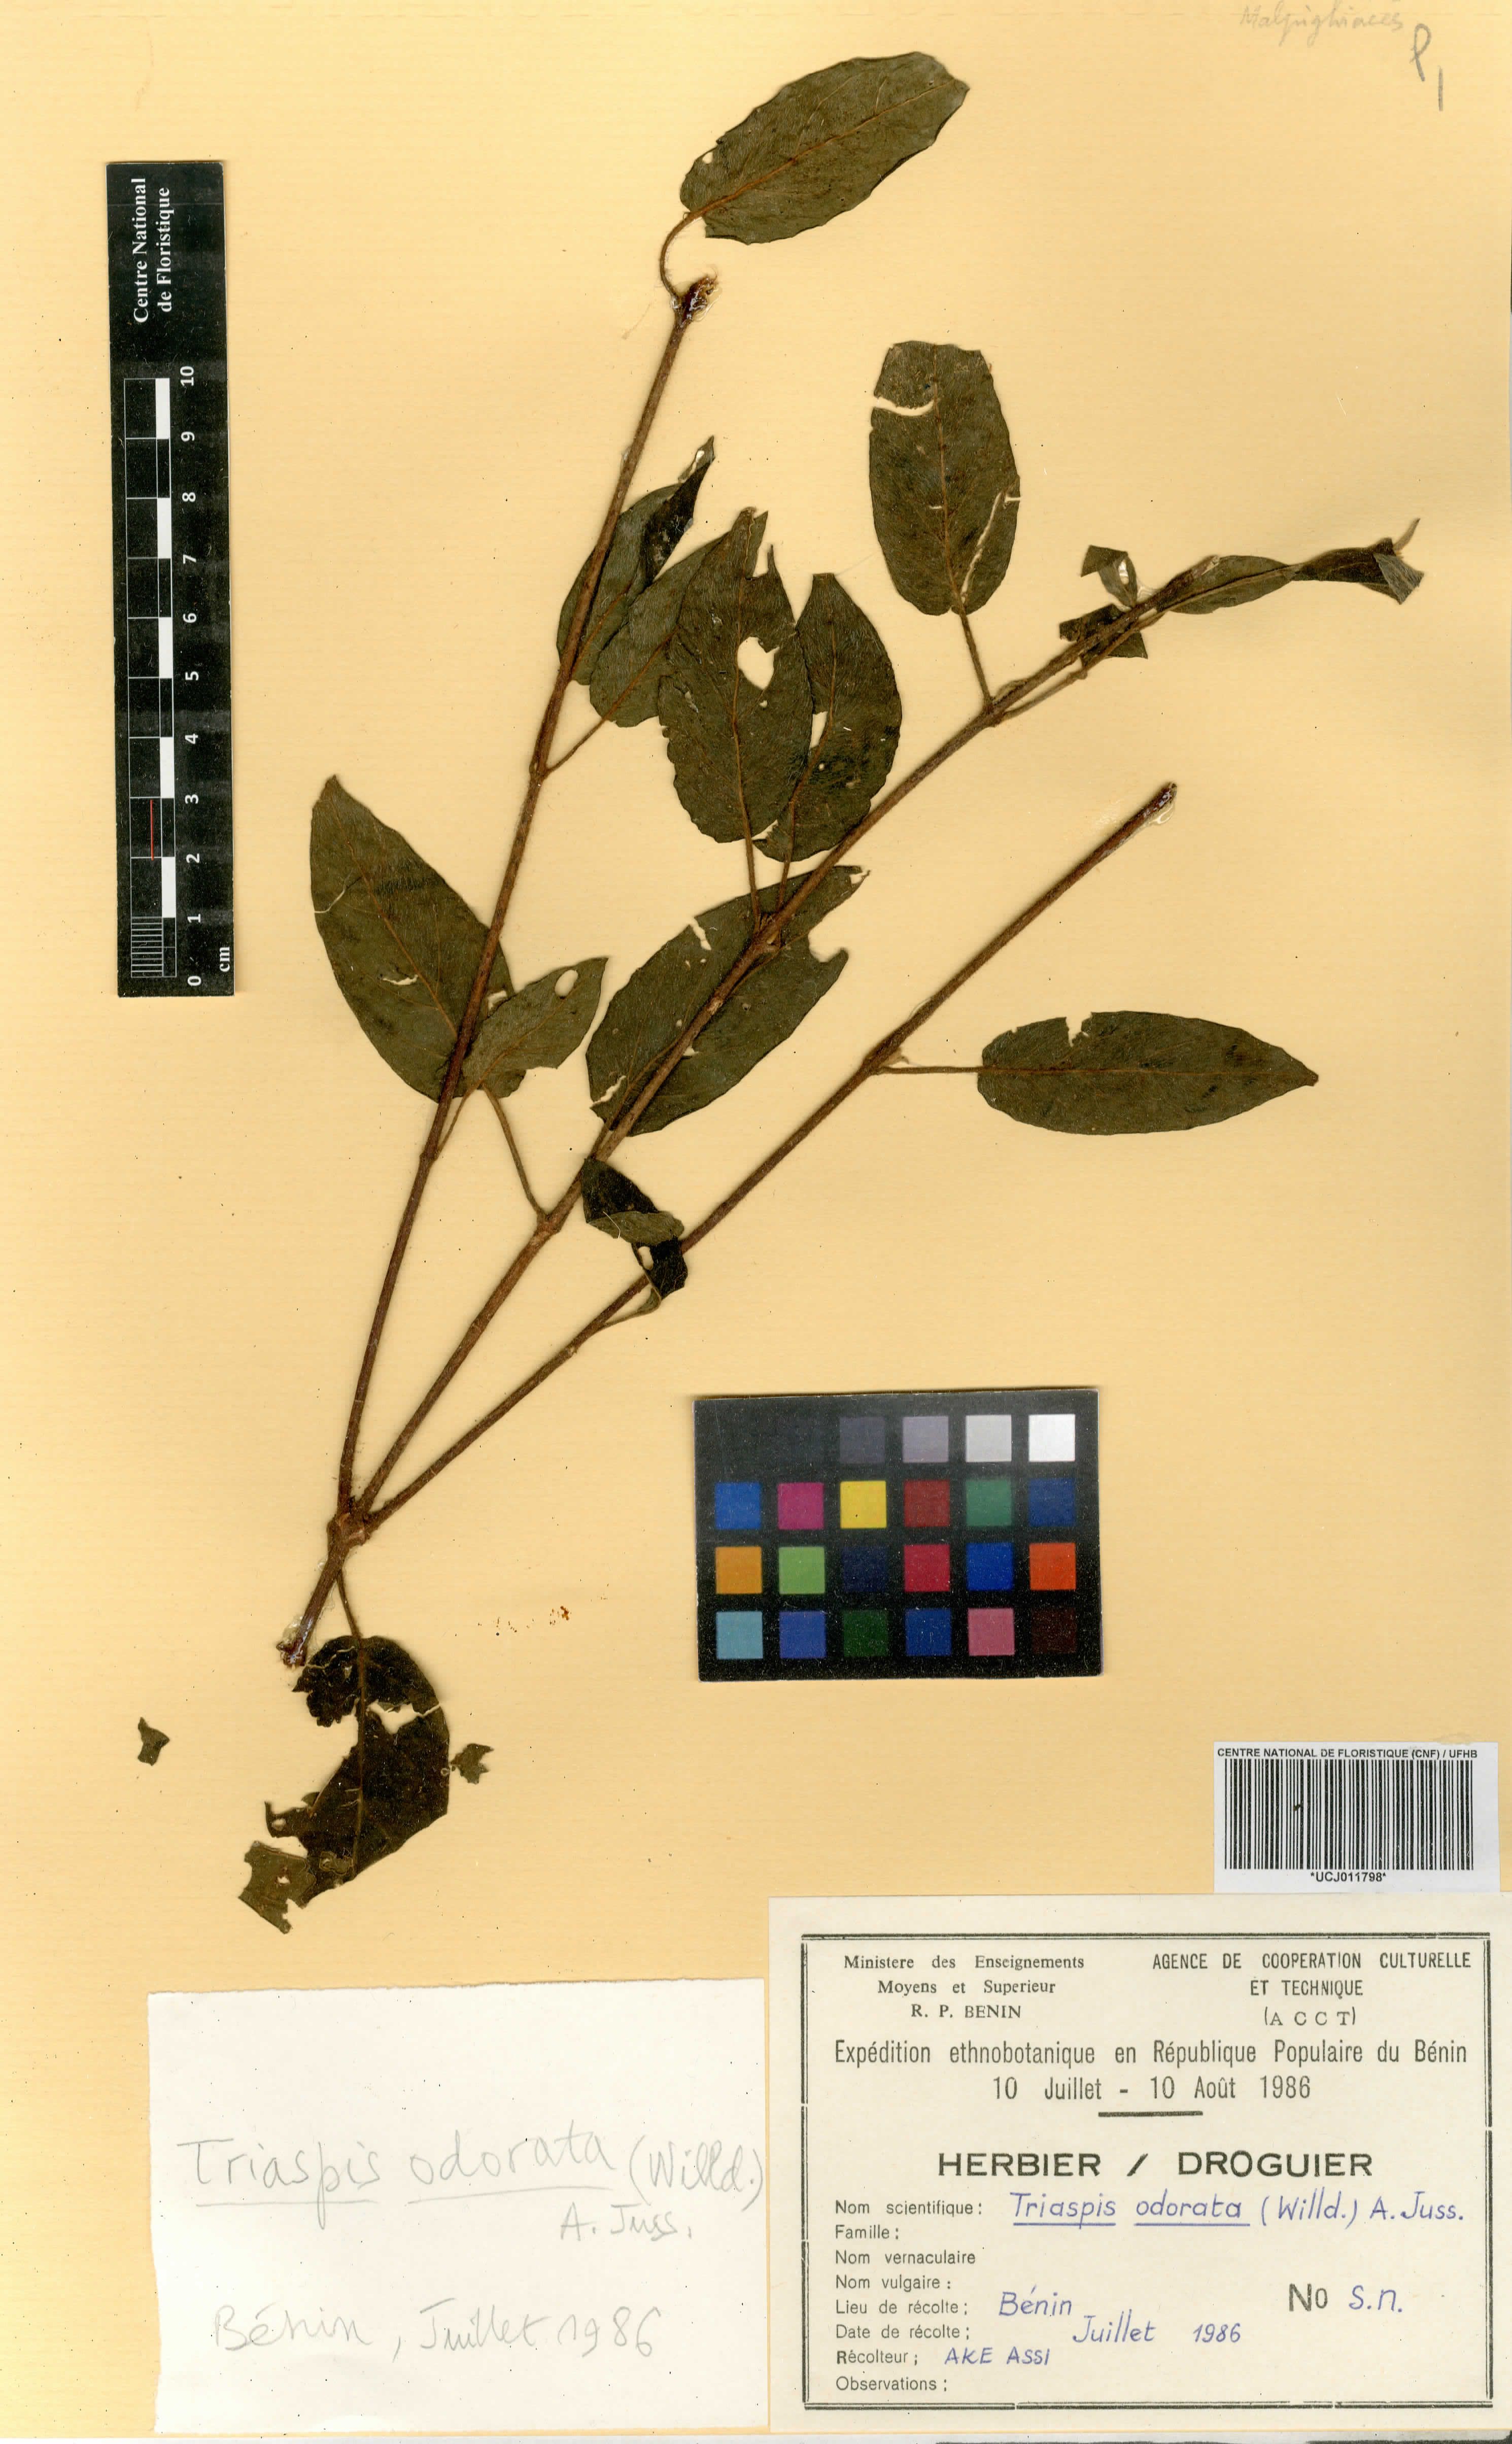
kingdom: Plantae
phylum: Tracheophyta
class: Magnoliopsida
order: Malpighiales
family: Malpighiaceae
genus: Triaspis
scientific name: Triaspis odorata
